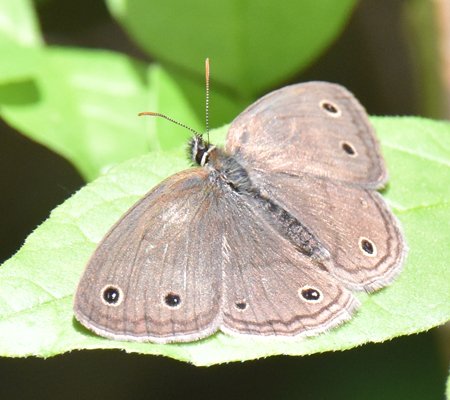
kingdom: Animalia
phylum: Arthropoda
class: Insecta
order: Lepidoptera
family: Nymphalidae
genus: Euptychia
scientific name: Euptychia cymela
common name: Little Wood Satyr
